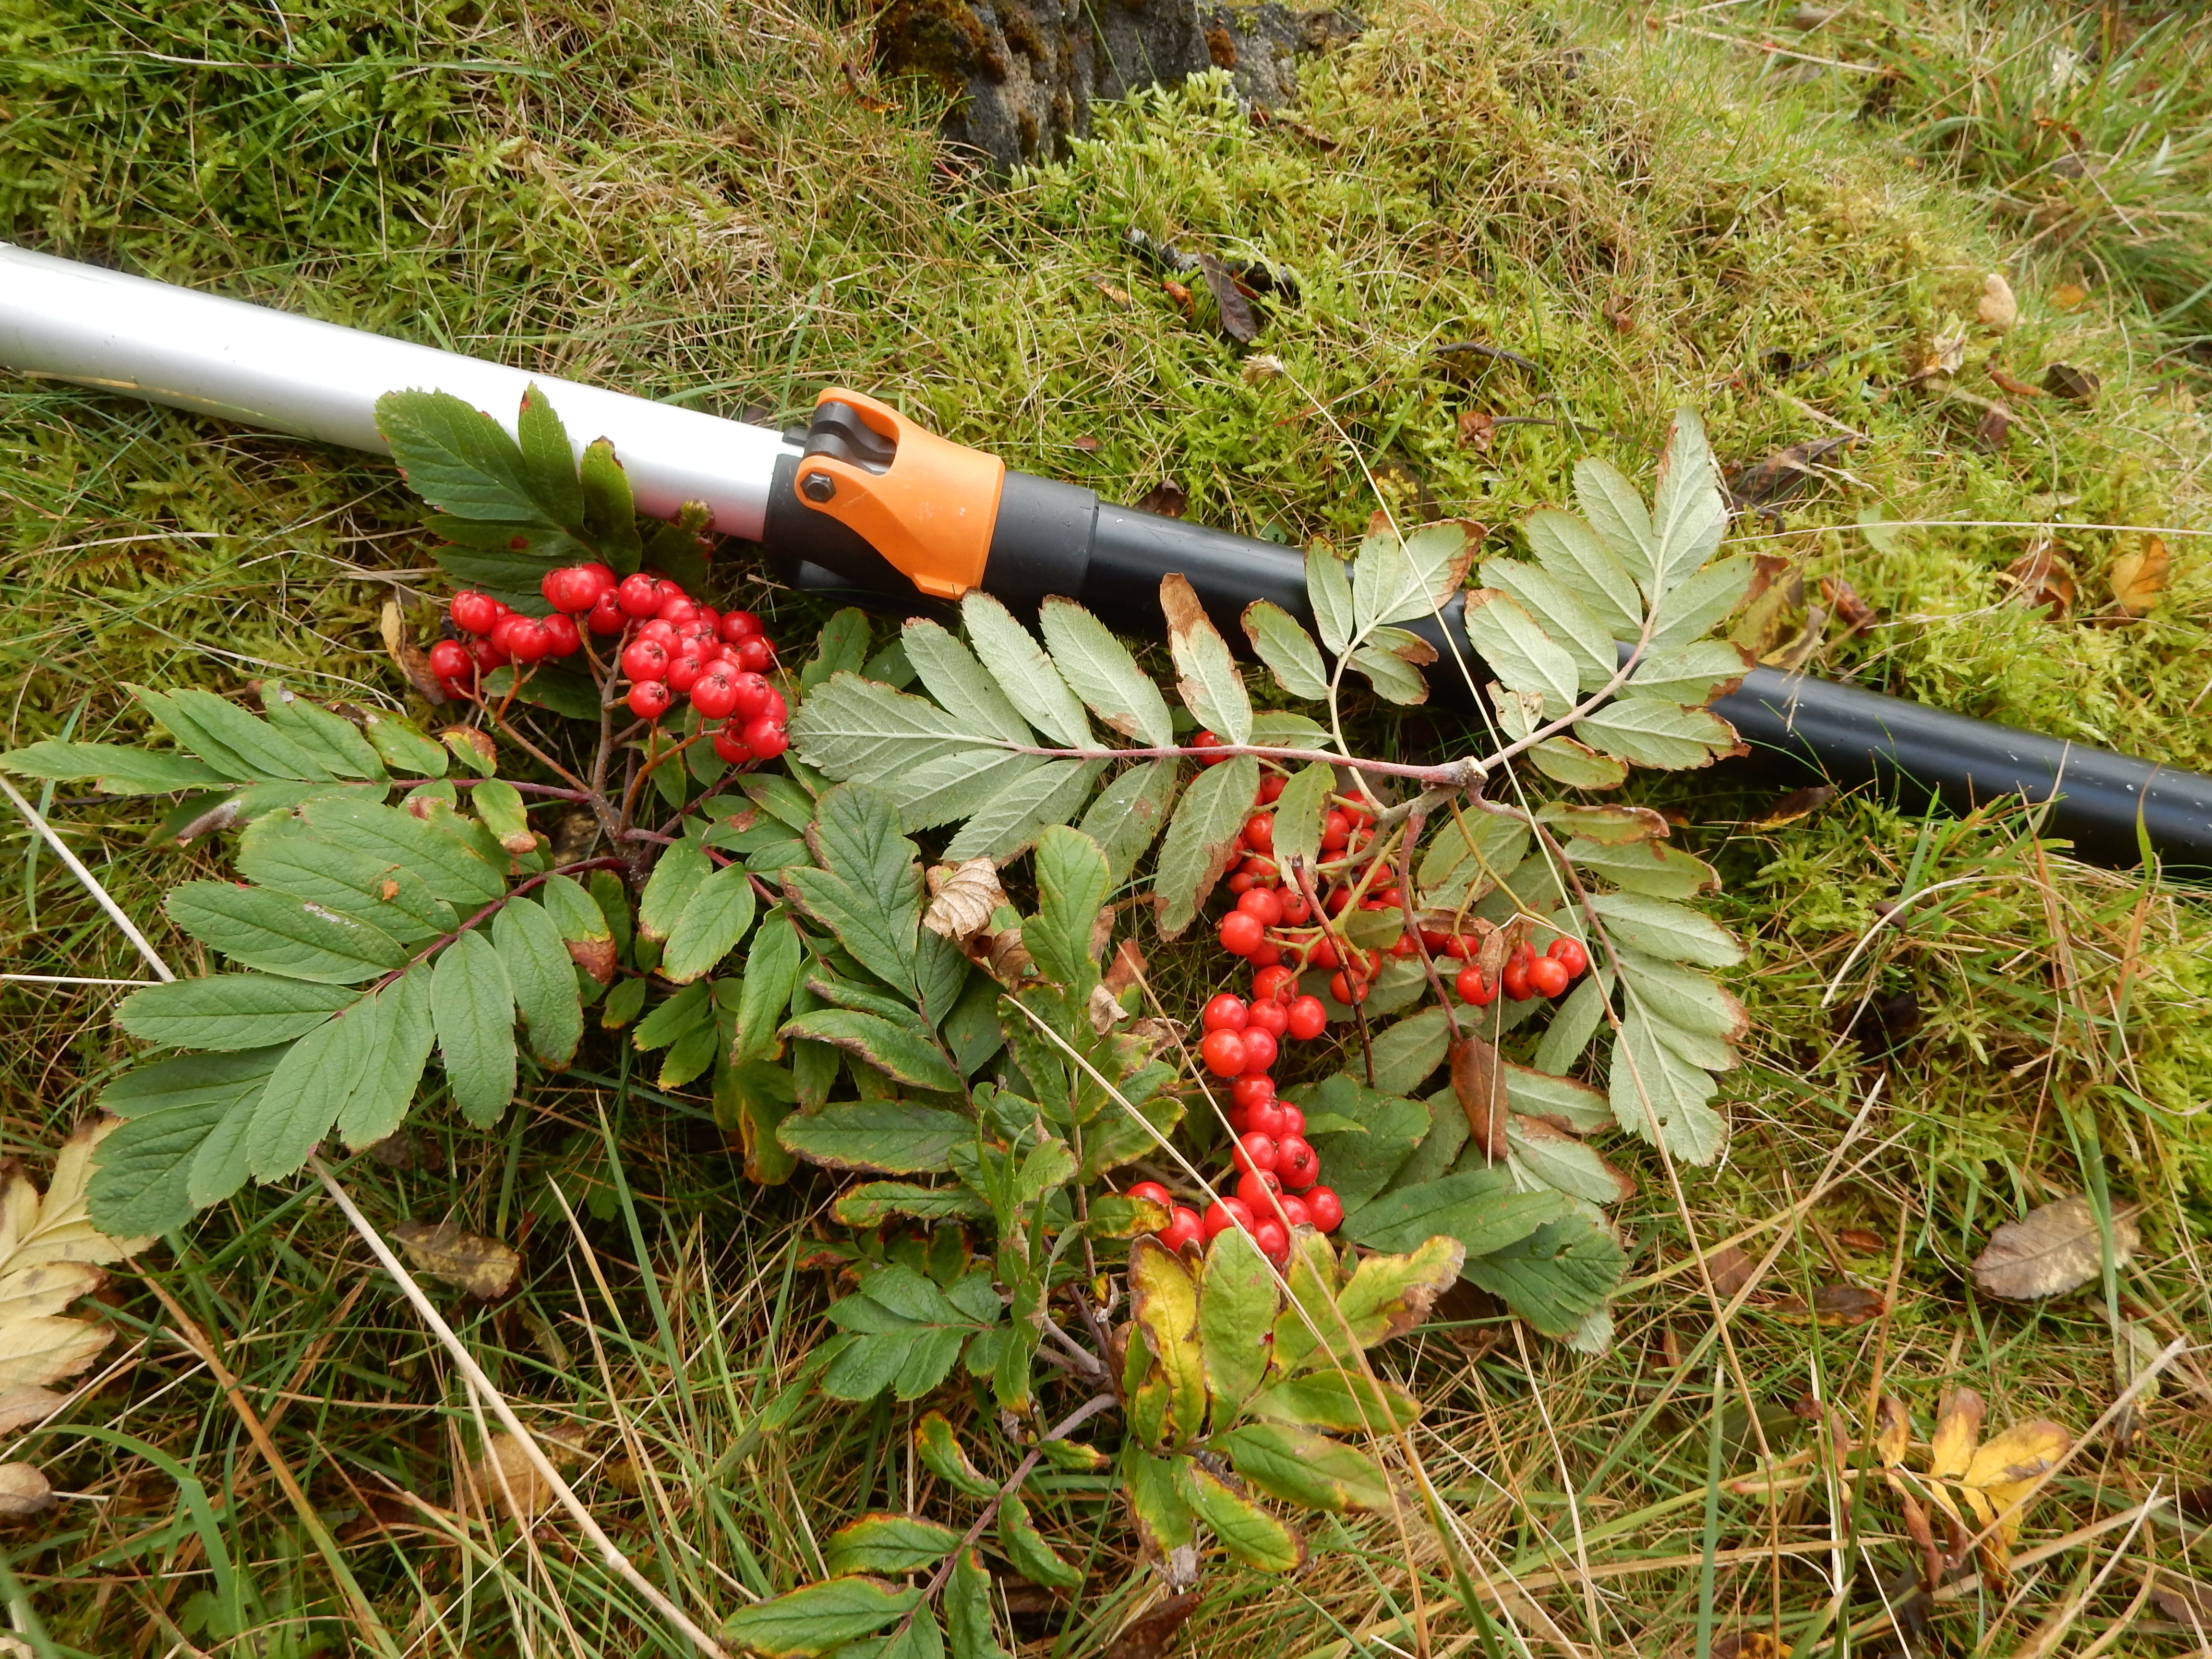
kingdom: Plantae
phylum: Tracheophyta
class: Magnoliopsida
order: Rosales
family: Rosaceae
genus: Hedlundia
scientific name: Hedlundia meinichii
